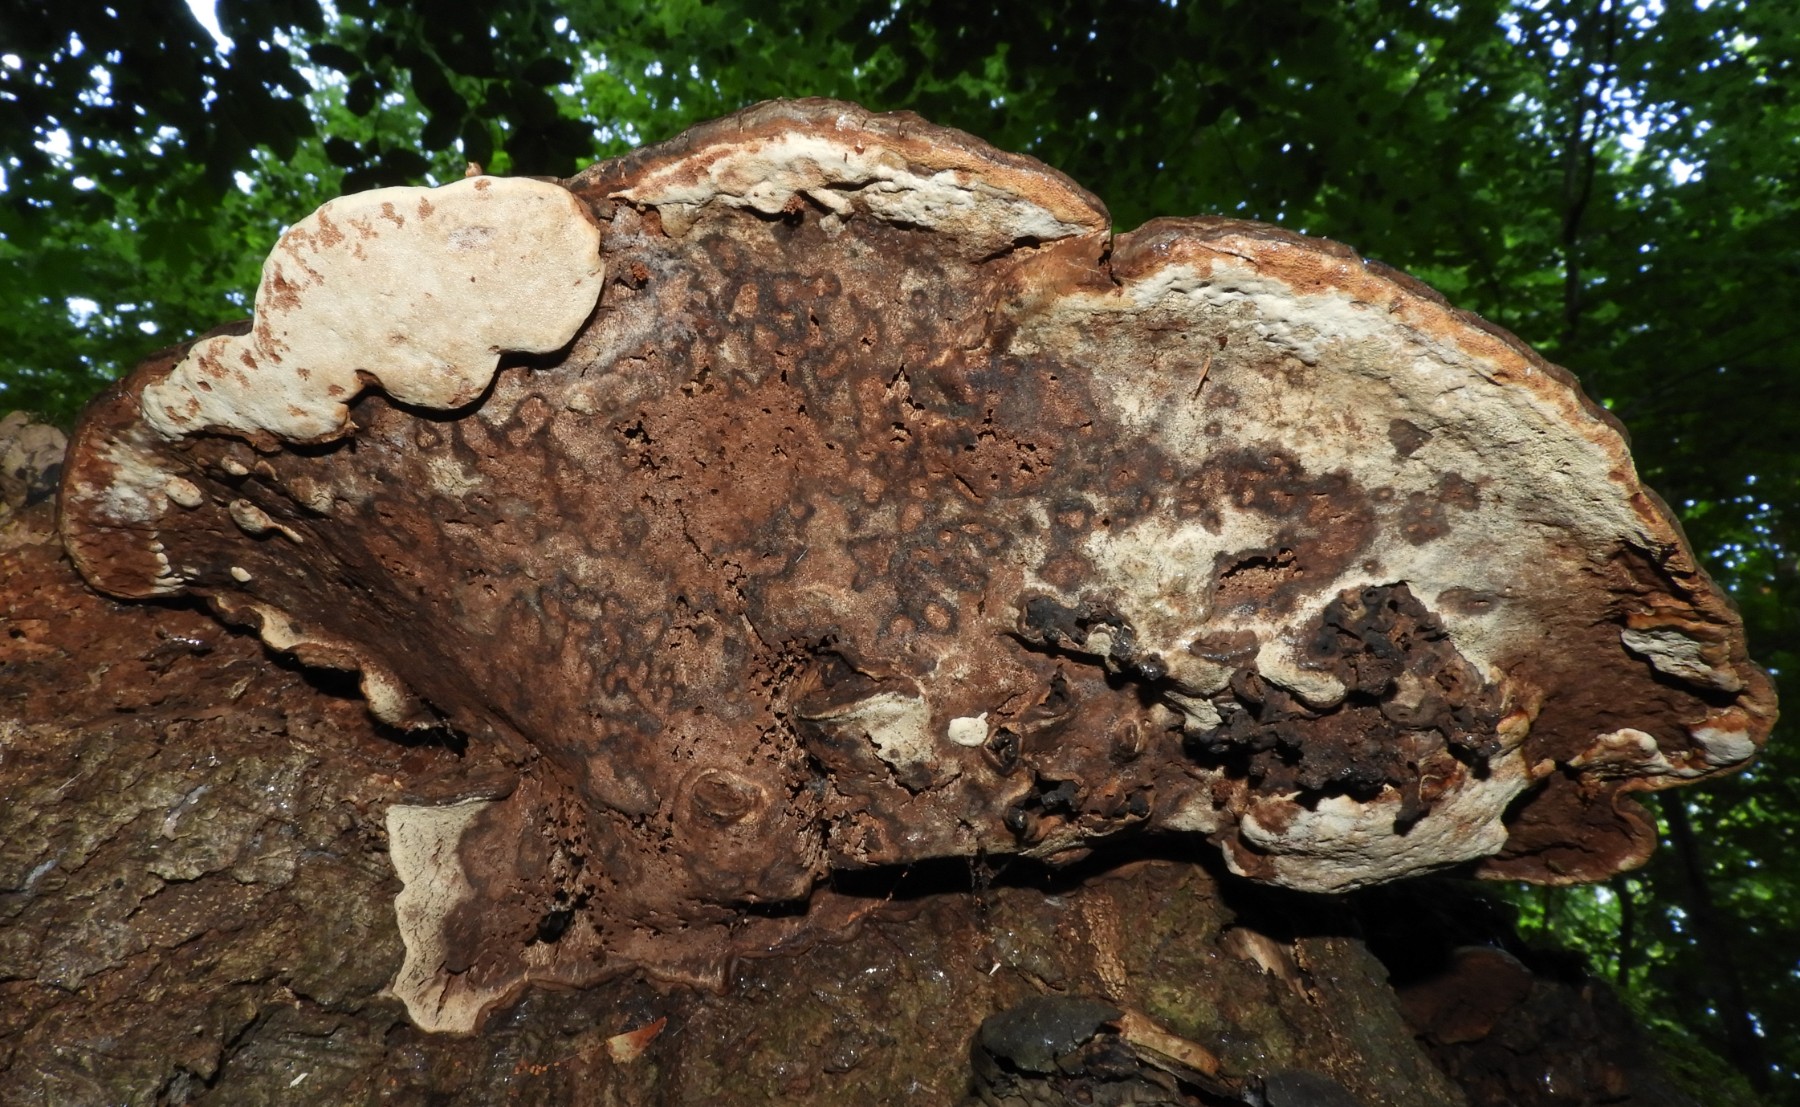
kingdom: Fungi
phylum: Basidiomycota
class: Agaricomycetes
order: Polyporales
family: Polyporaceae
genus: Ganoderma
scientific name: Ganoderma applanatum
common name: flad lakporesvamp
